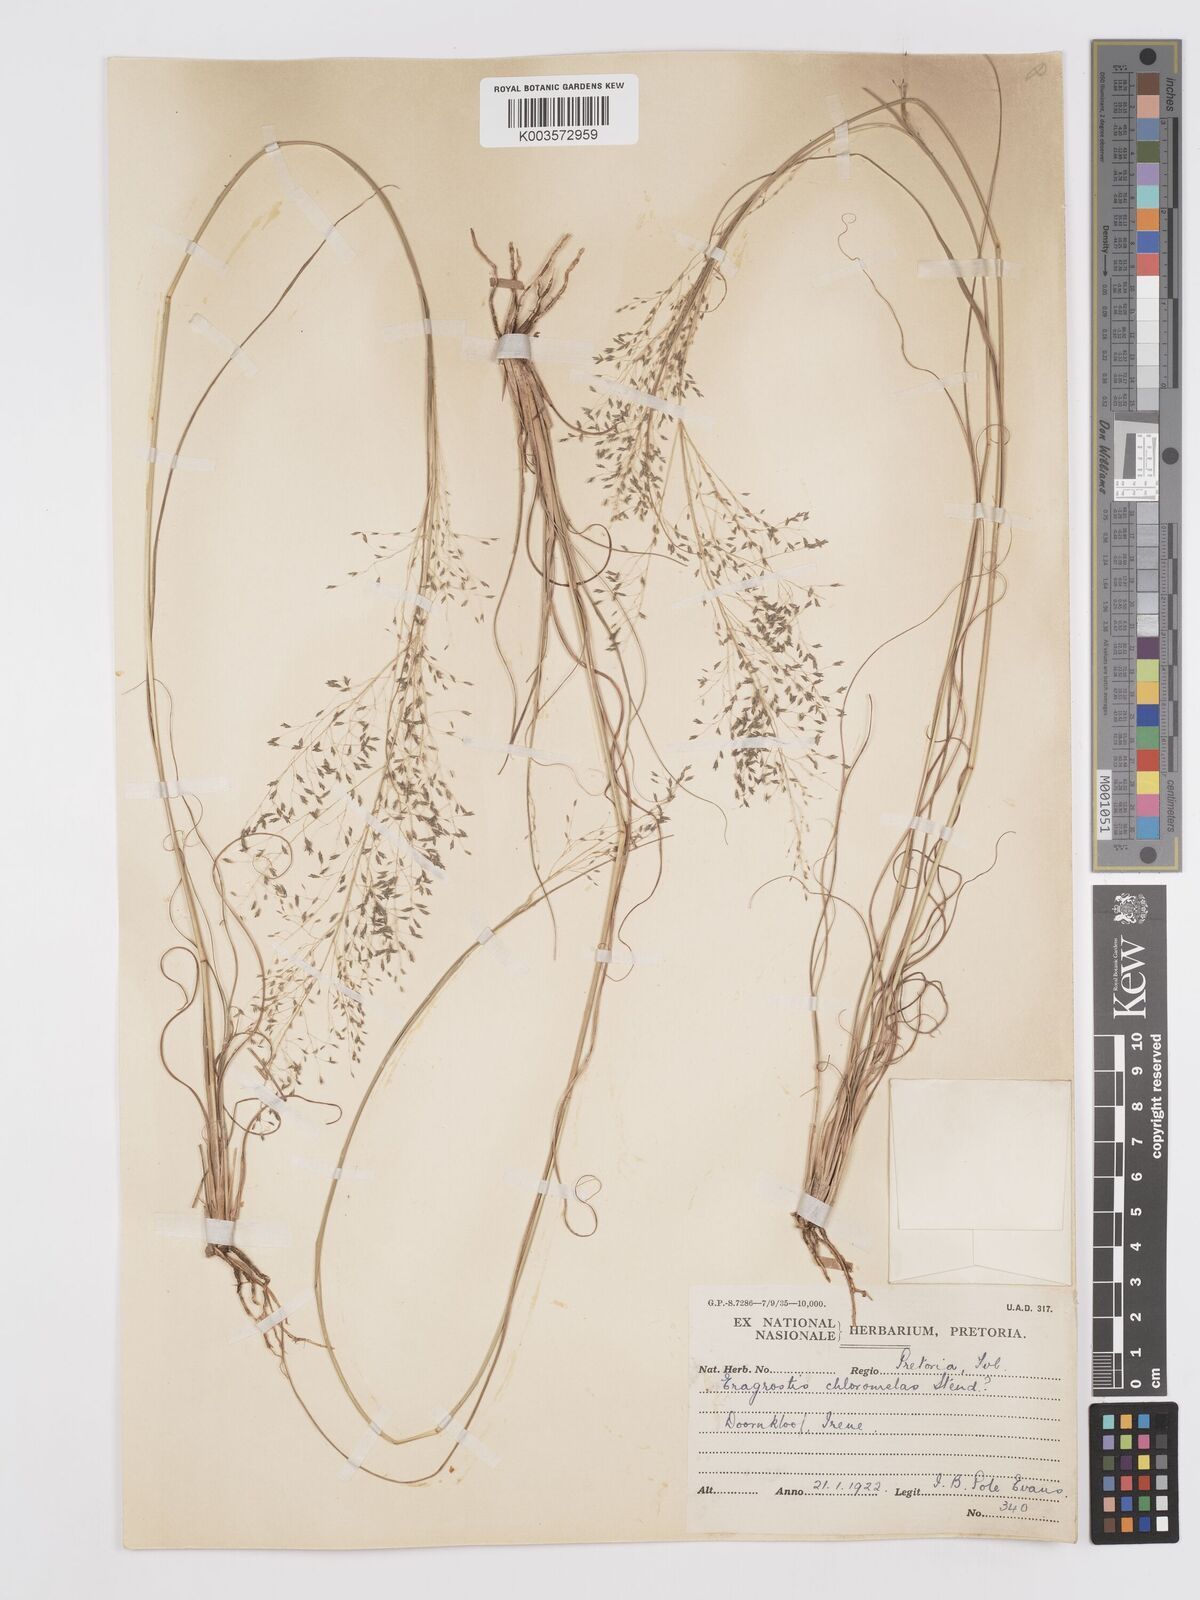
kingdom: Plantae
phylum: Tracheophyta
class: Liliopsida
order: Poales
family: Poaceae
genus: Eragrostis
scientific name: Eragrostis curvula
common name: African love-grass
